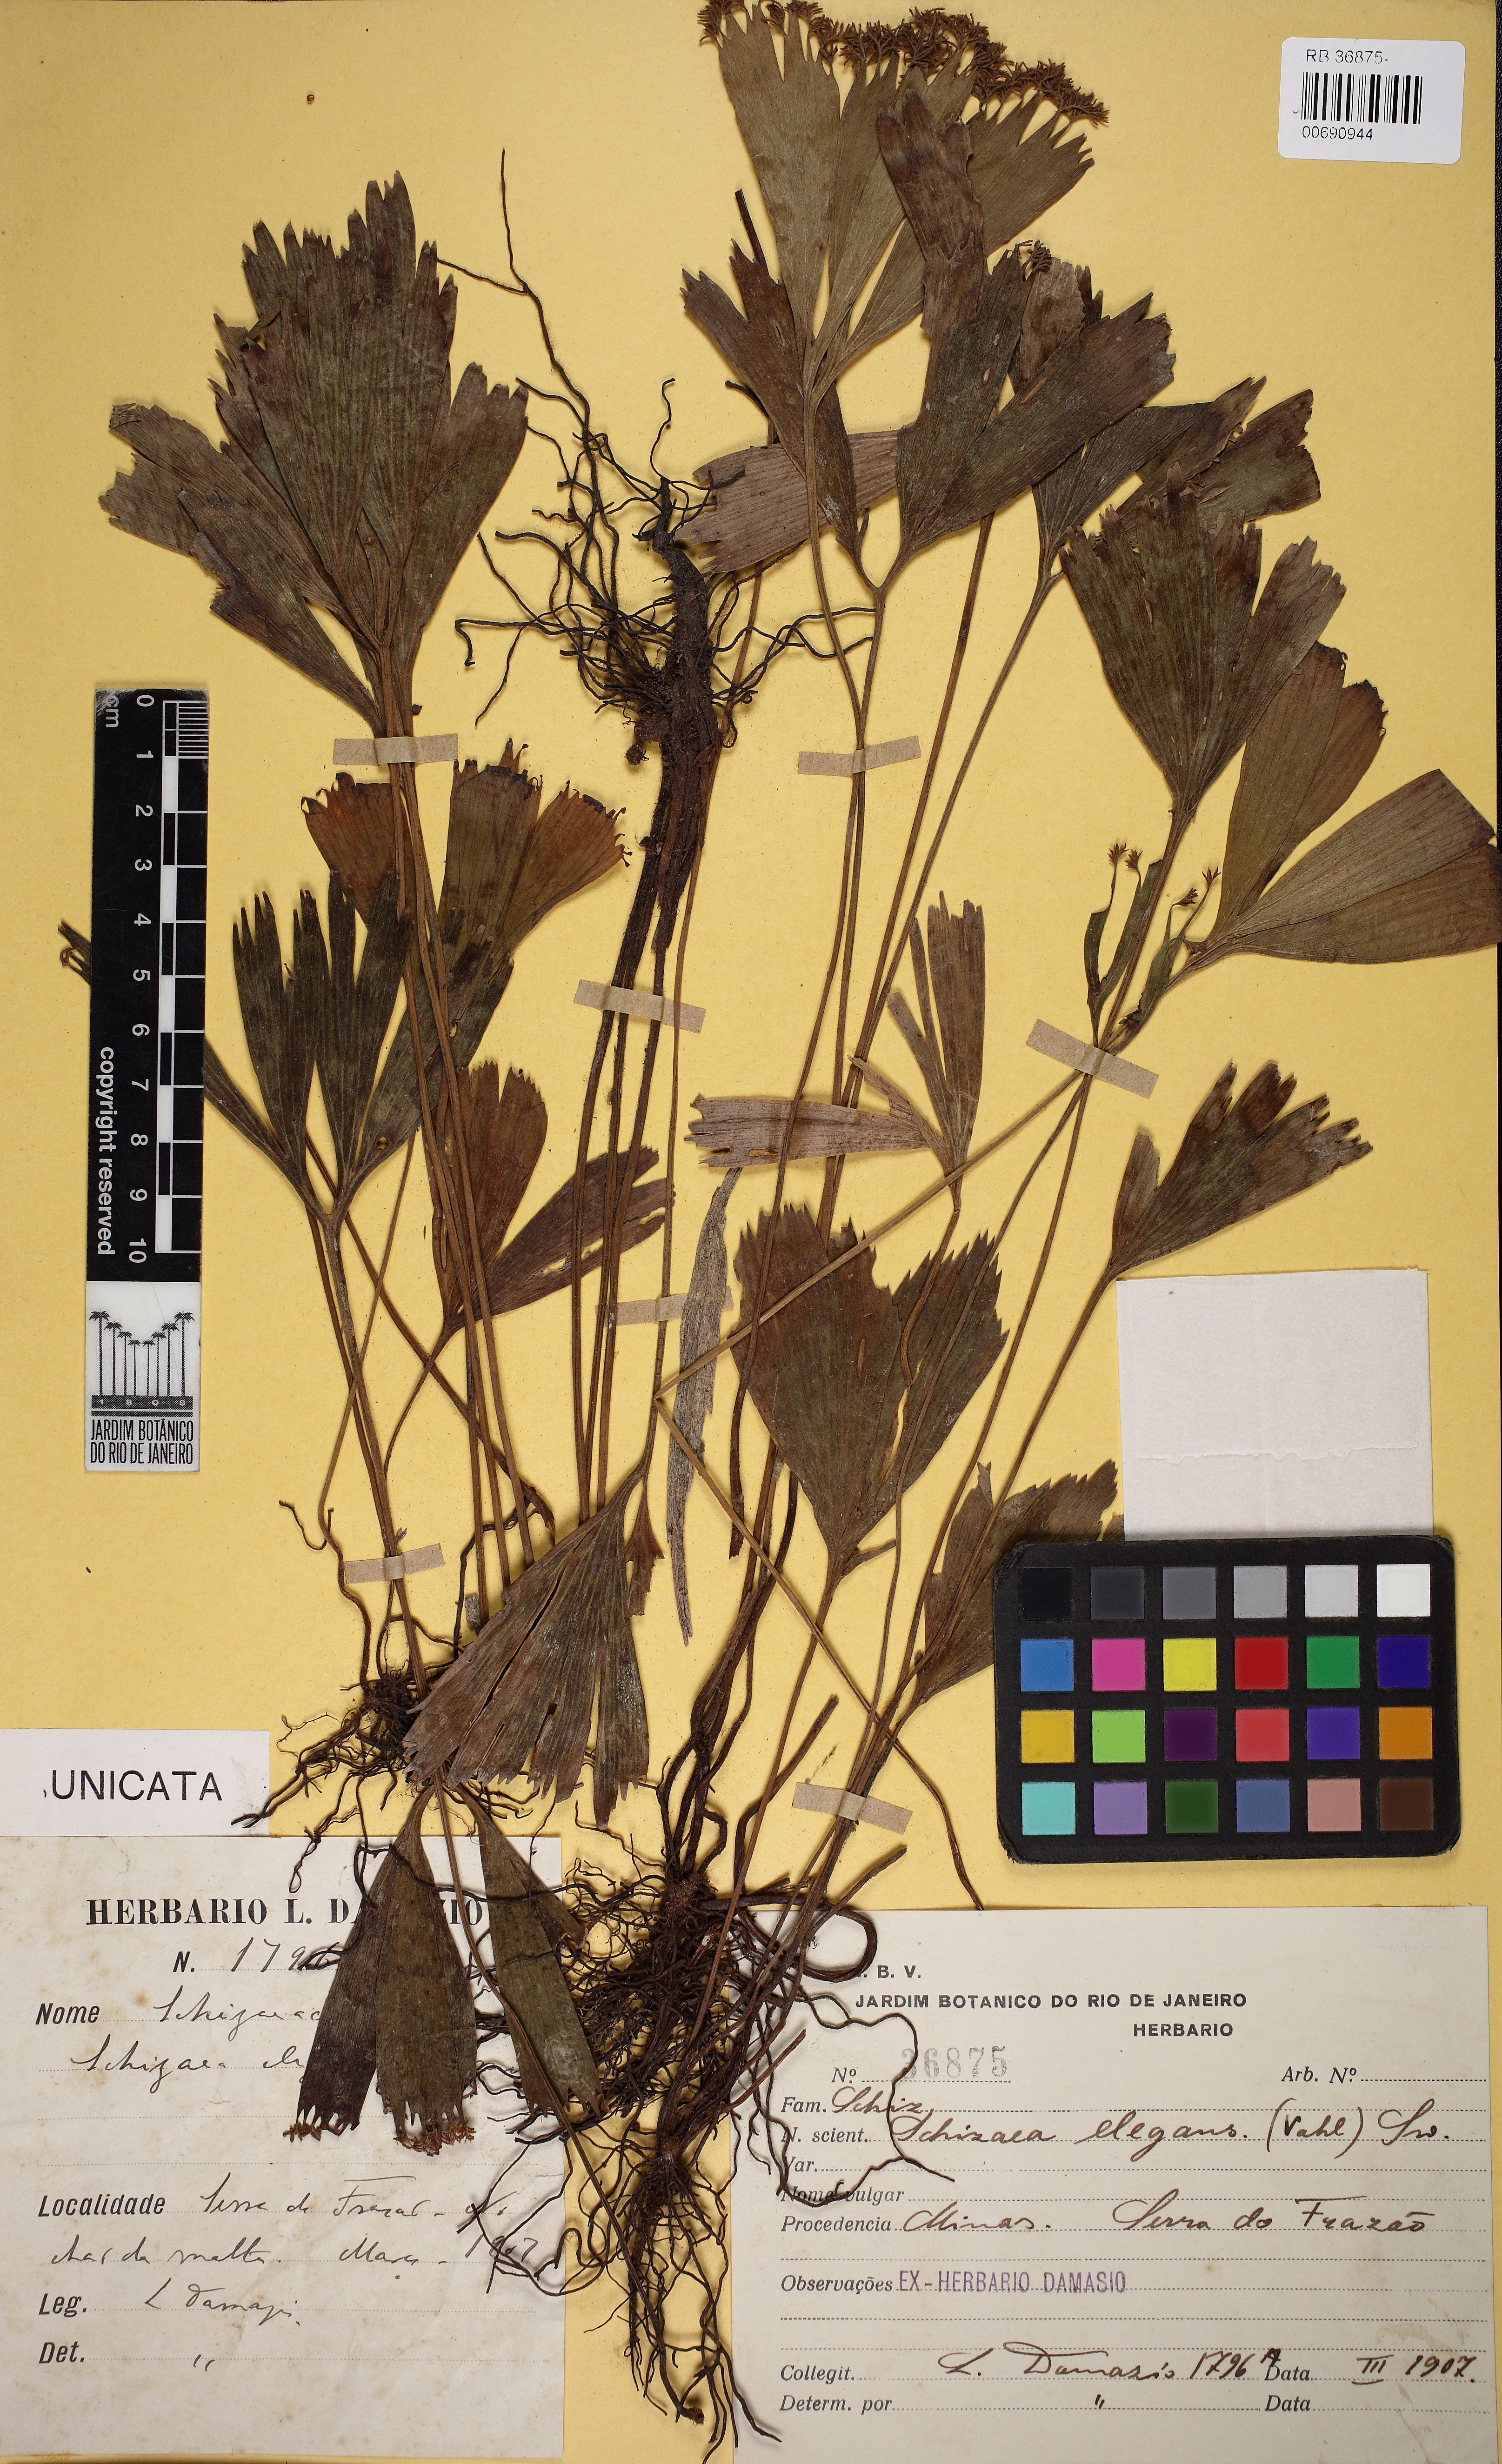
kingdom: Plantae
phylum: Tracheophyta
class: Polypodiopsida
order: Schizaeales
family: Schizaeaceae
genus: Schizaea
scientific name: Schizaea elegans
